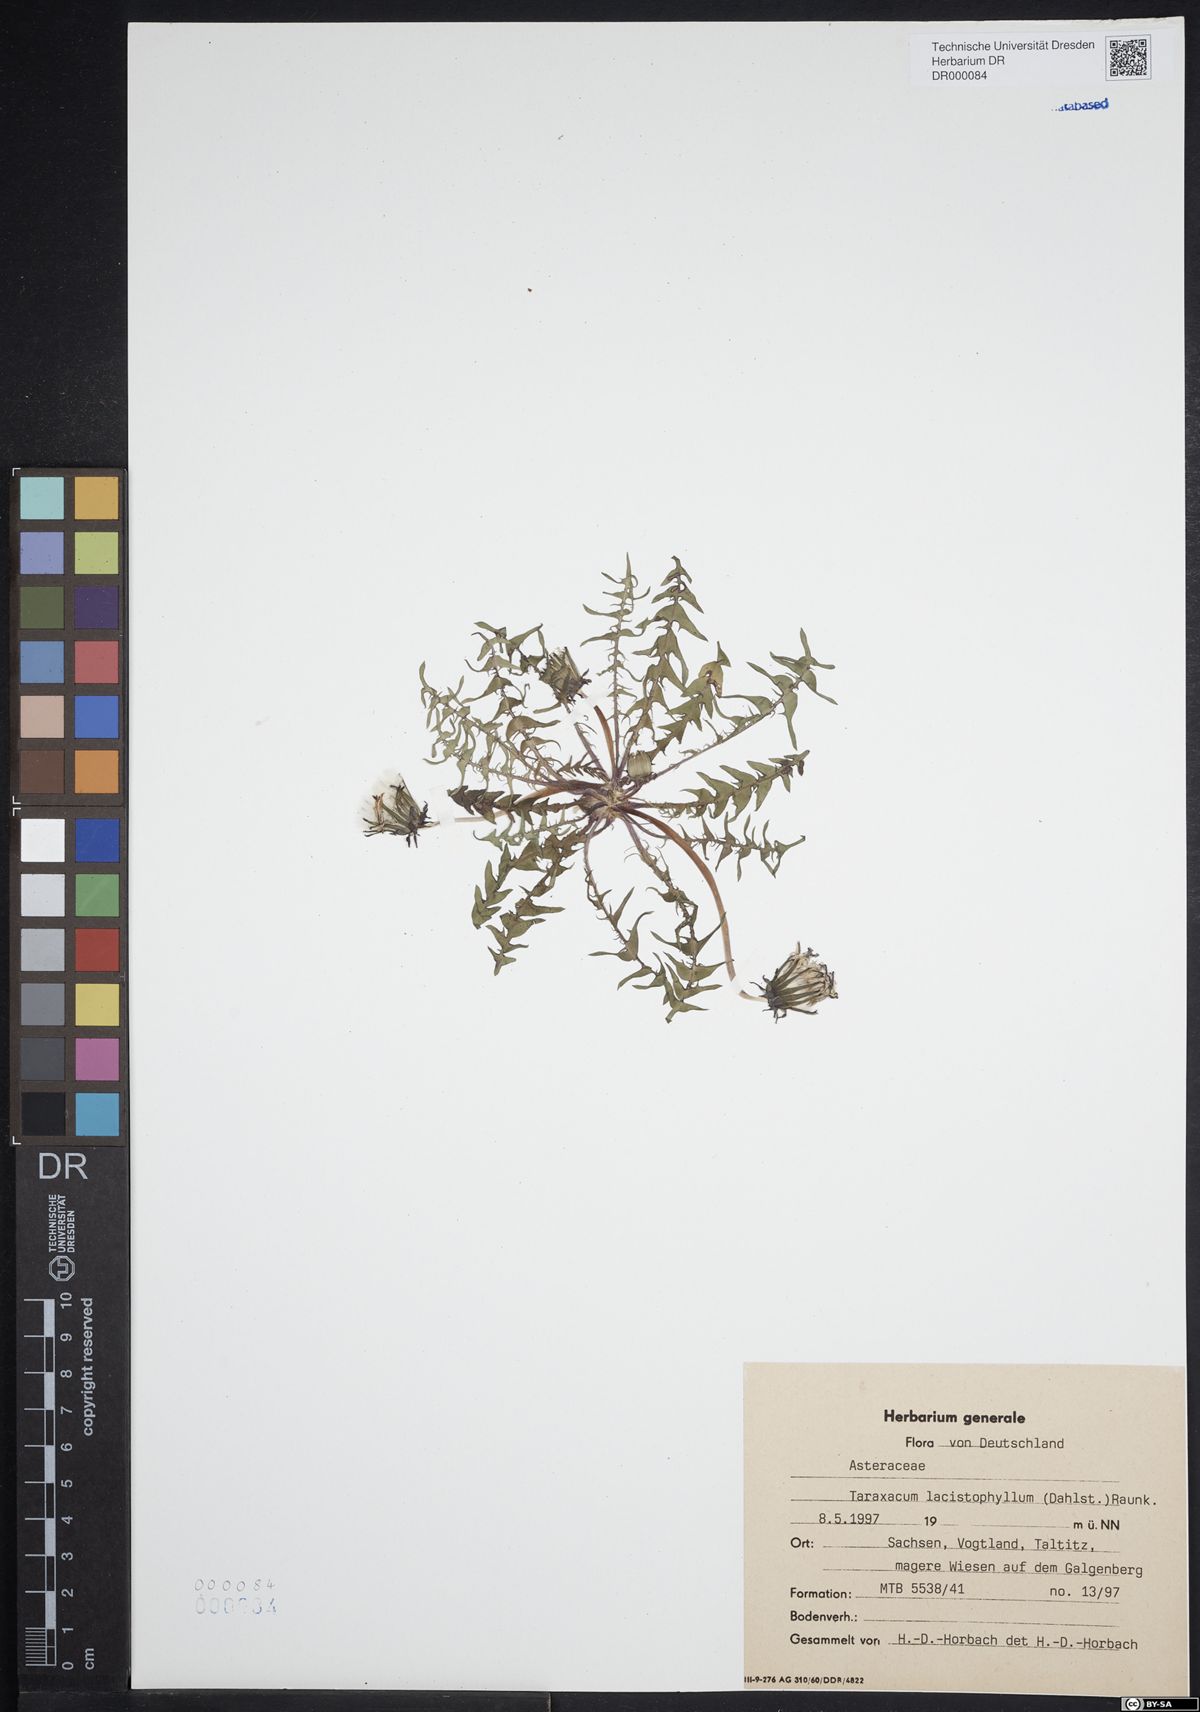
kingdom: Plantae
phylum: Tracheophyta
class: Magnoliopsida
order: Asterales
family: Asteraceae
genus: Taraxacum
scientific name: Taraxacum lacistophyllum
